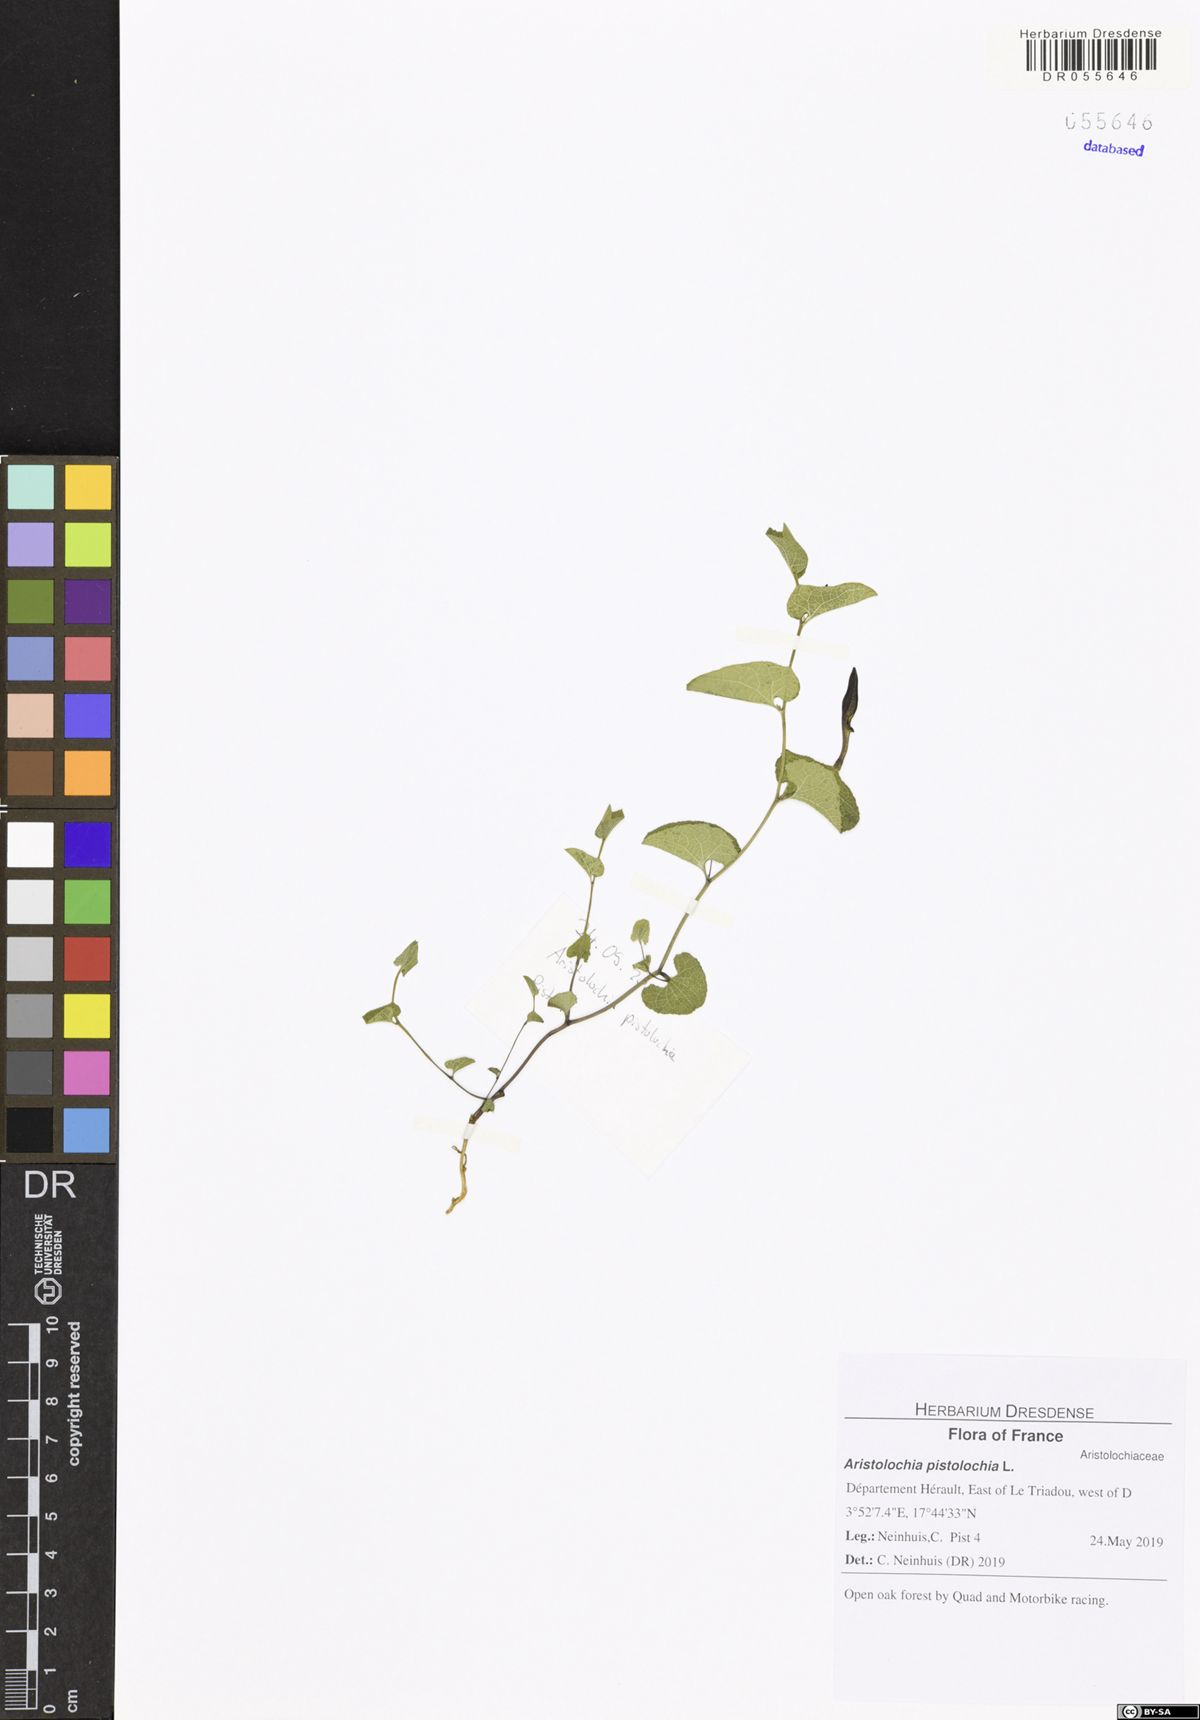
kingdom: Plantae
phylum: Tracheophyta
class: Magnoliopsida
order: Piperales
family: Aristolochiaceae
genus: Aristolochia
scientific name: Aristolochia pistolochia
